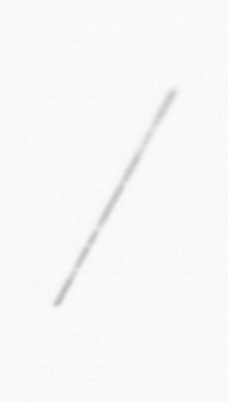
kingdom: Chromista
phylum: Ochrophyta
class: Bacillariophyceae
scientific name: Bacillariophyceae
